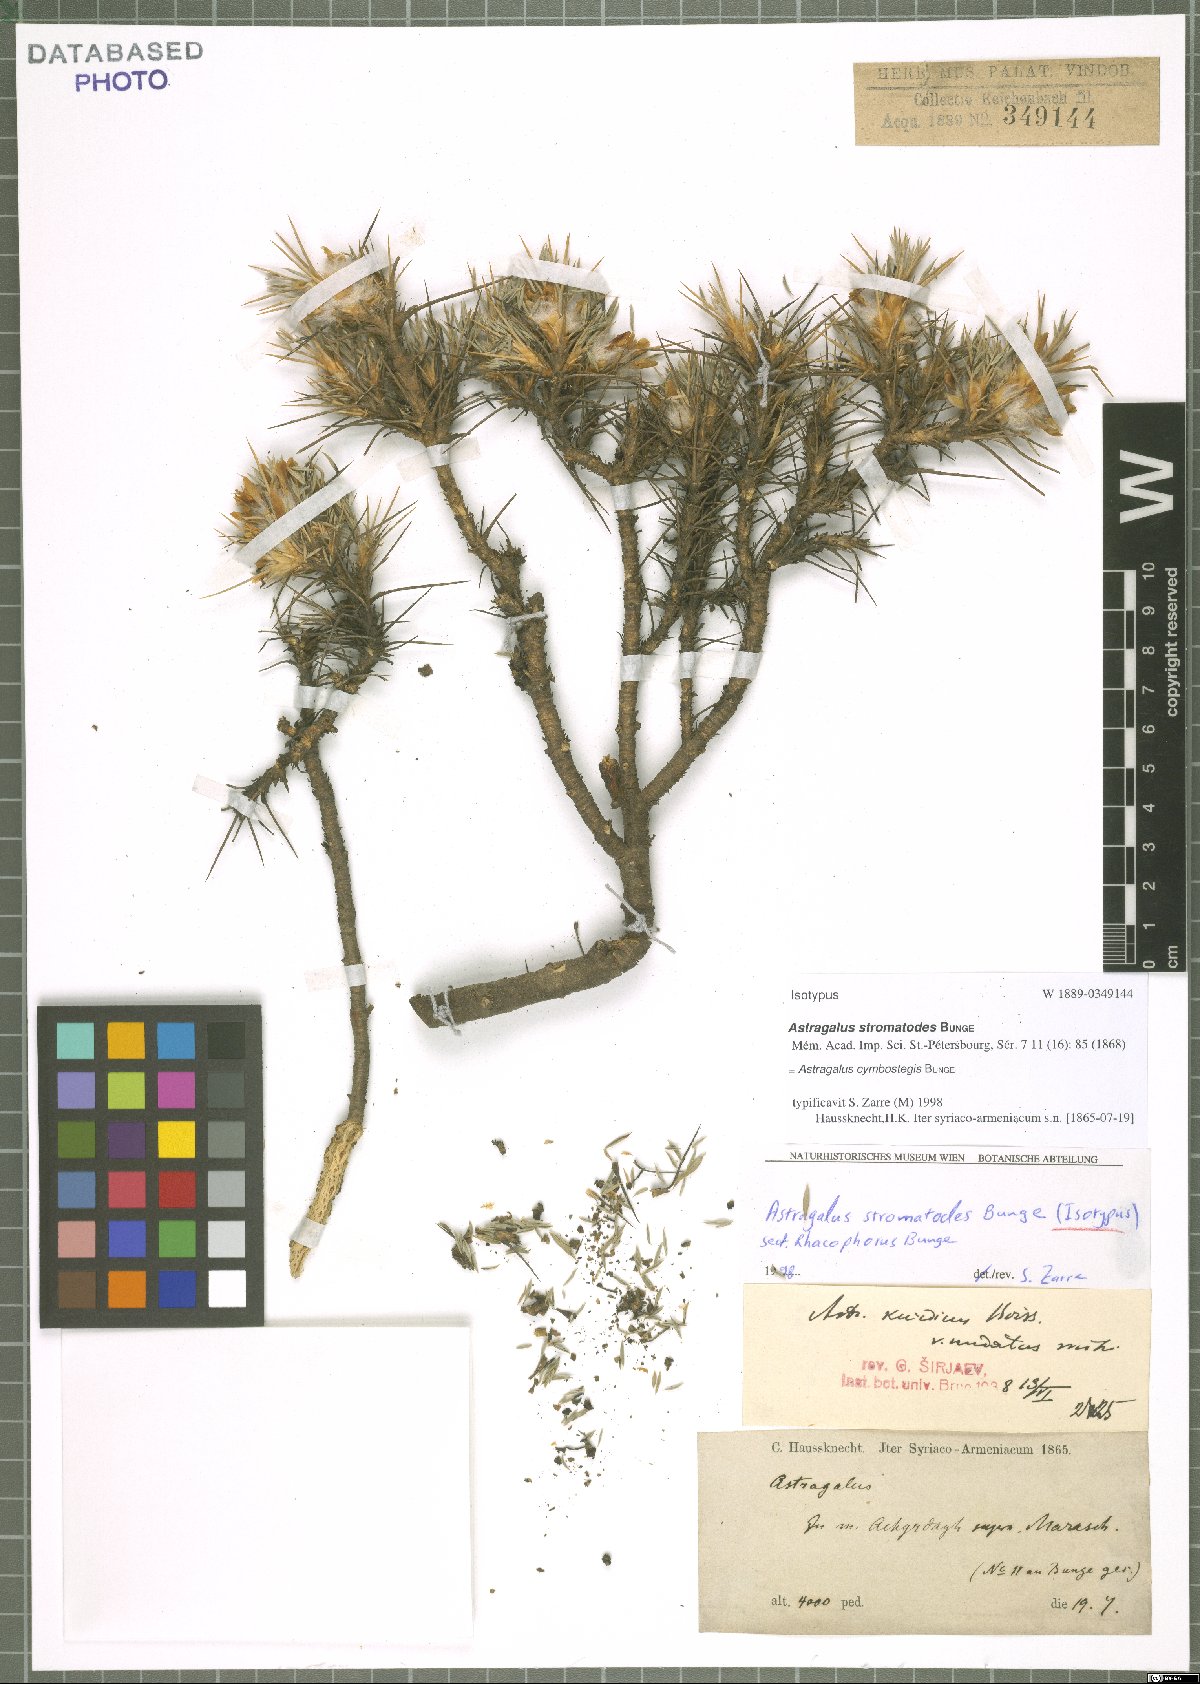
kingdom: Plantae
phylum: Tracheophyta
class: Magnoliopsida
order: Fabales
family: Fabaceae
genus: Astragalus
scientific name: Astragalus cymbostegis
